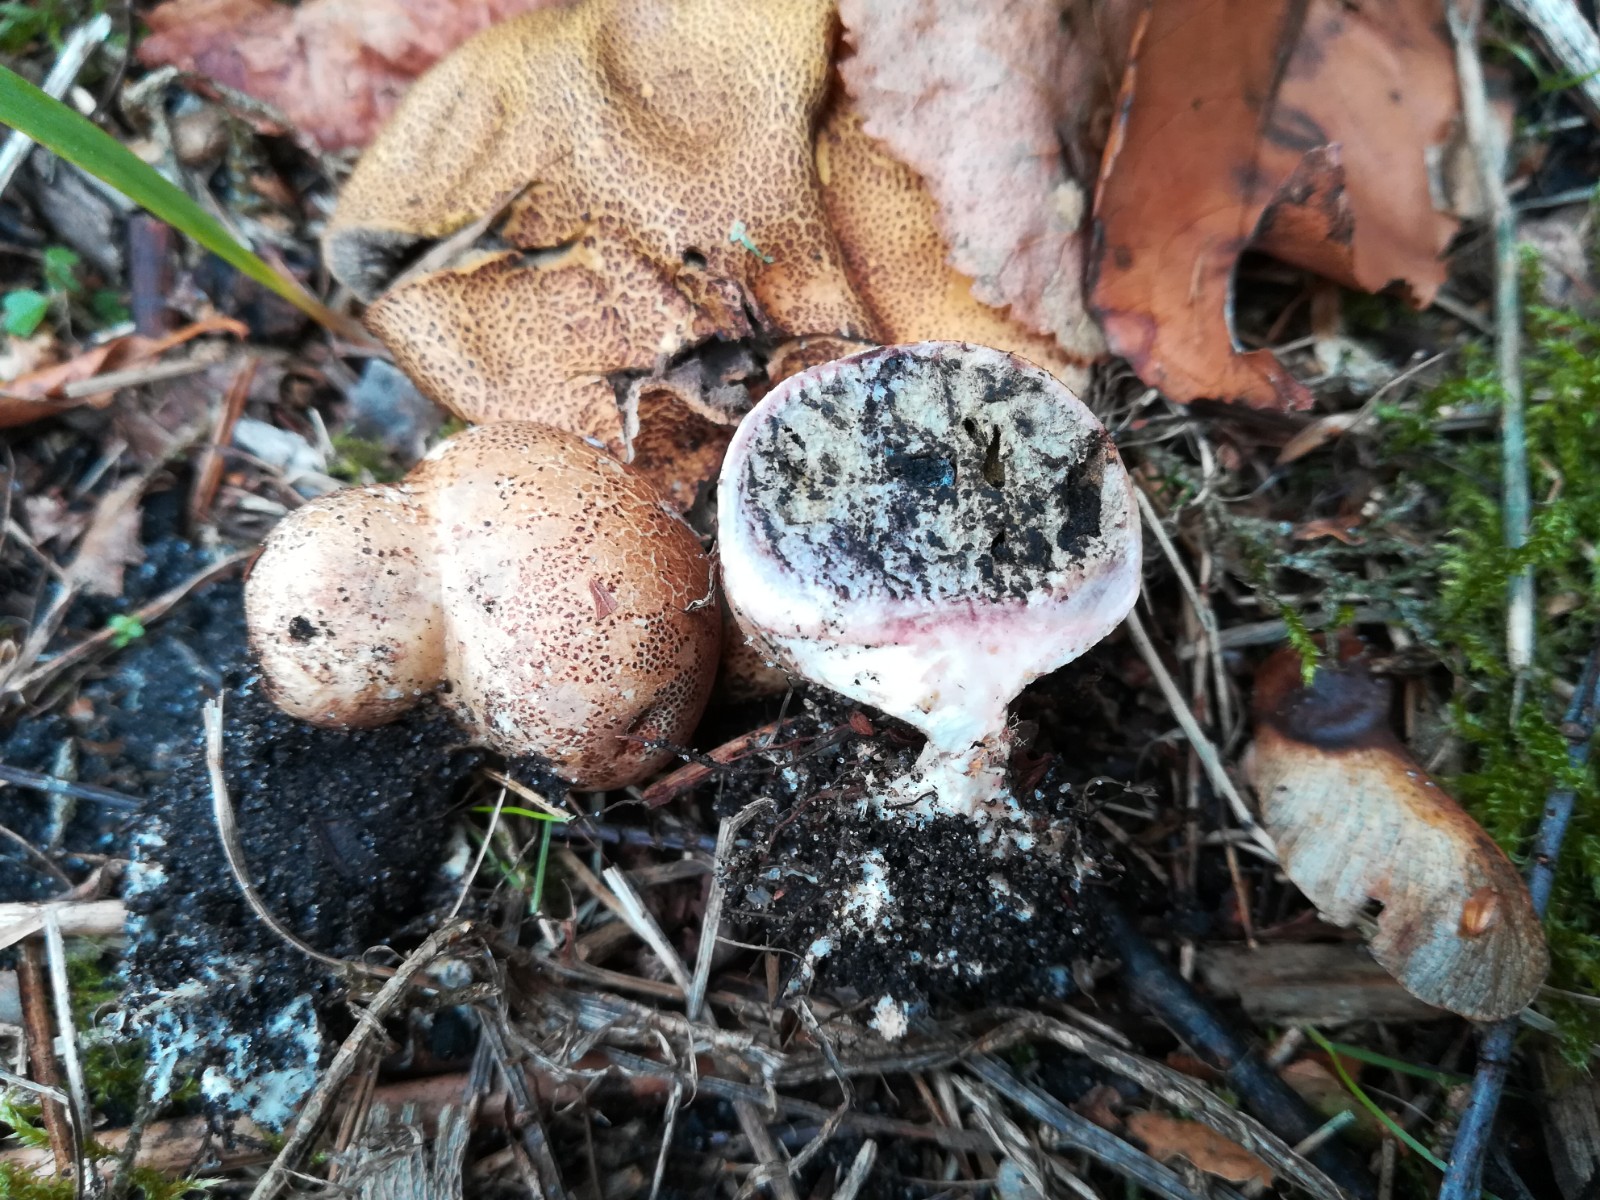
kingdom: Fungi
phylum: Basidiomycota
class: Agaricomycetes
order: Boletales
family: Sclerodermataceae
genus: Scleroderma
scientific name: Scleroderma areolatum
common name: plettet bruskbold
